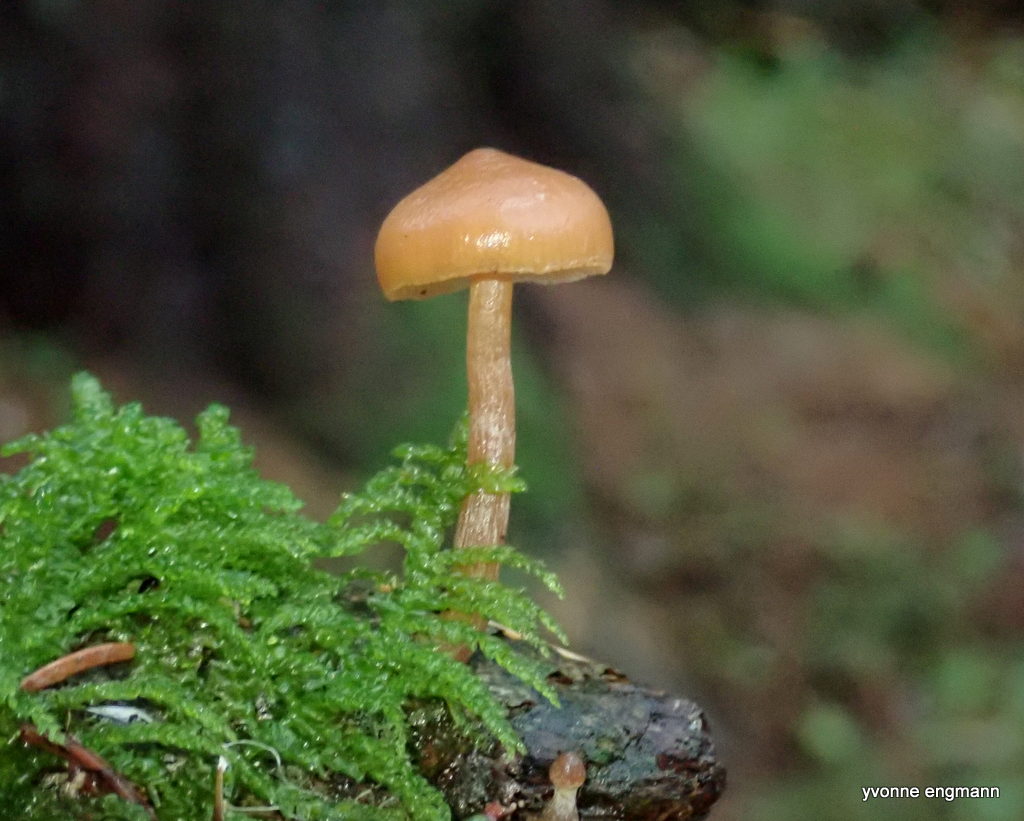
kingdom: Fungi
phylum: Basidiomycota
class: Agaricomycetes
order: Agaricales
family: Tubariaceae
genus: Tubaria
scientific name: Tubaria furfuracea
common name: kliddet fnughat
